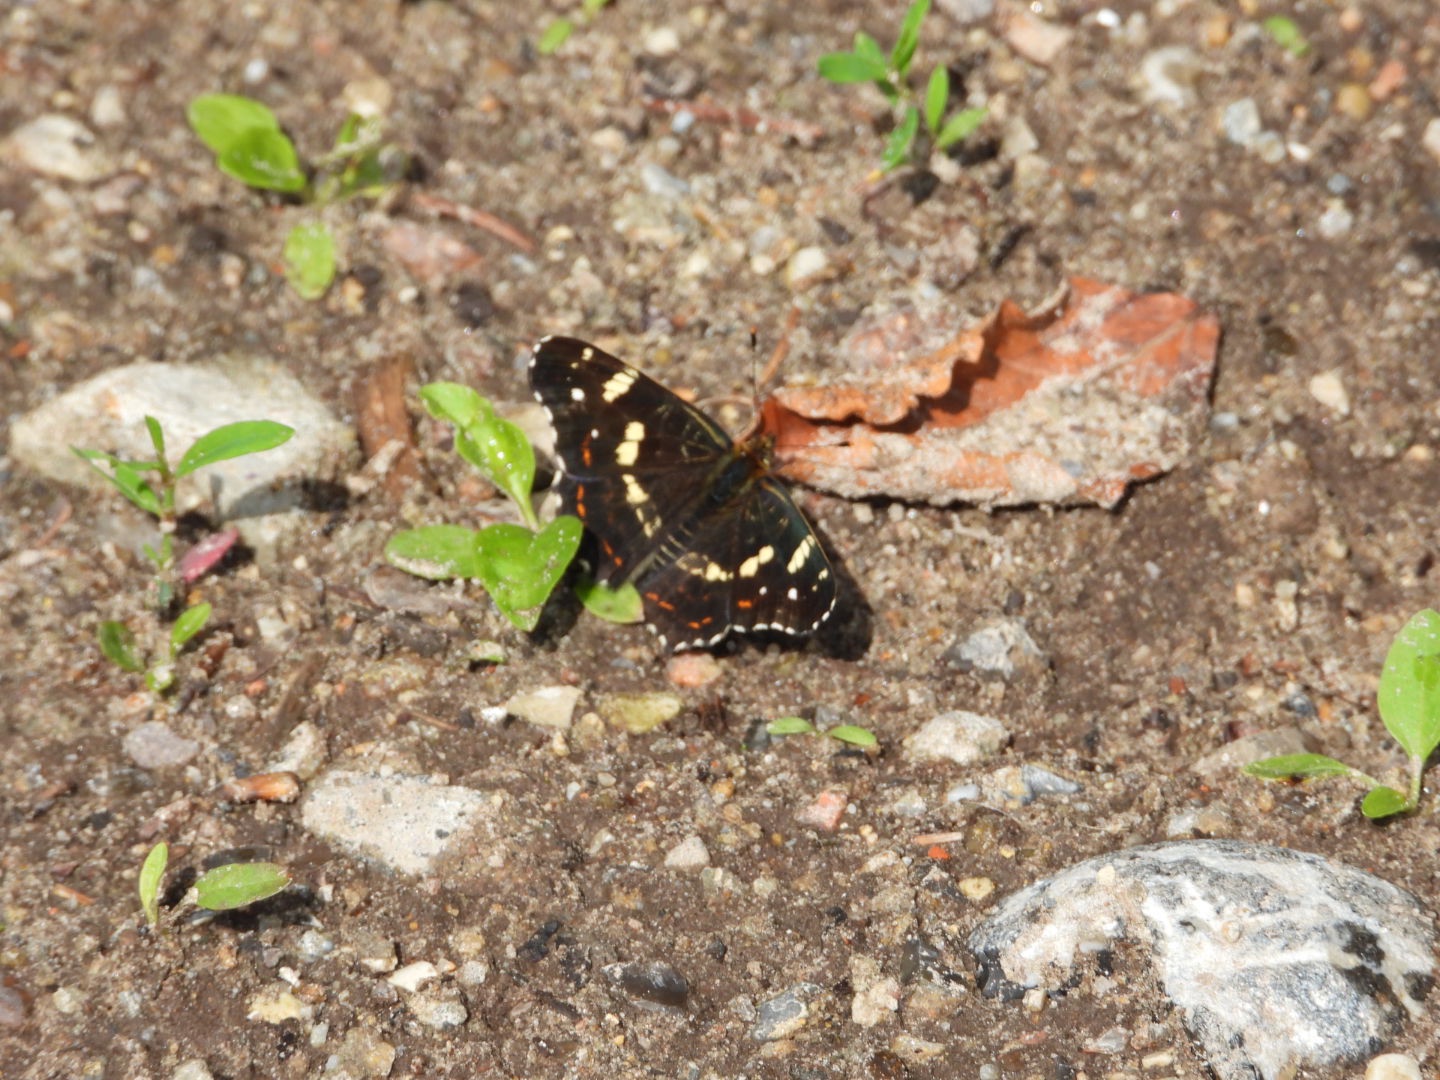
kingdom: Animalia
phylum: Arthropoda
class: Insecta
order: Lepidoptera
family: Nymphalidae
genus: Araschnia
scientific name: Araschnia levana
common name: Nældesommerfugl
